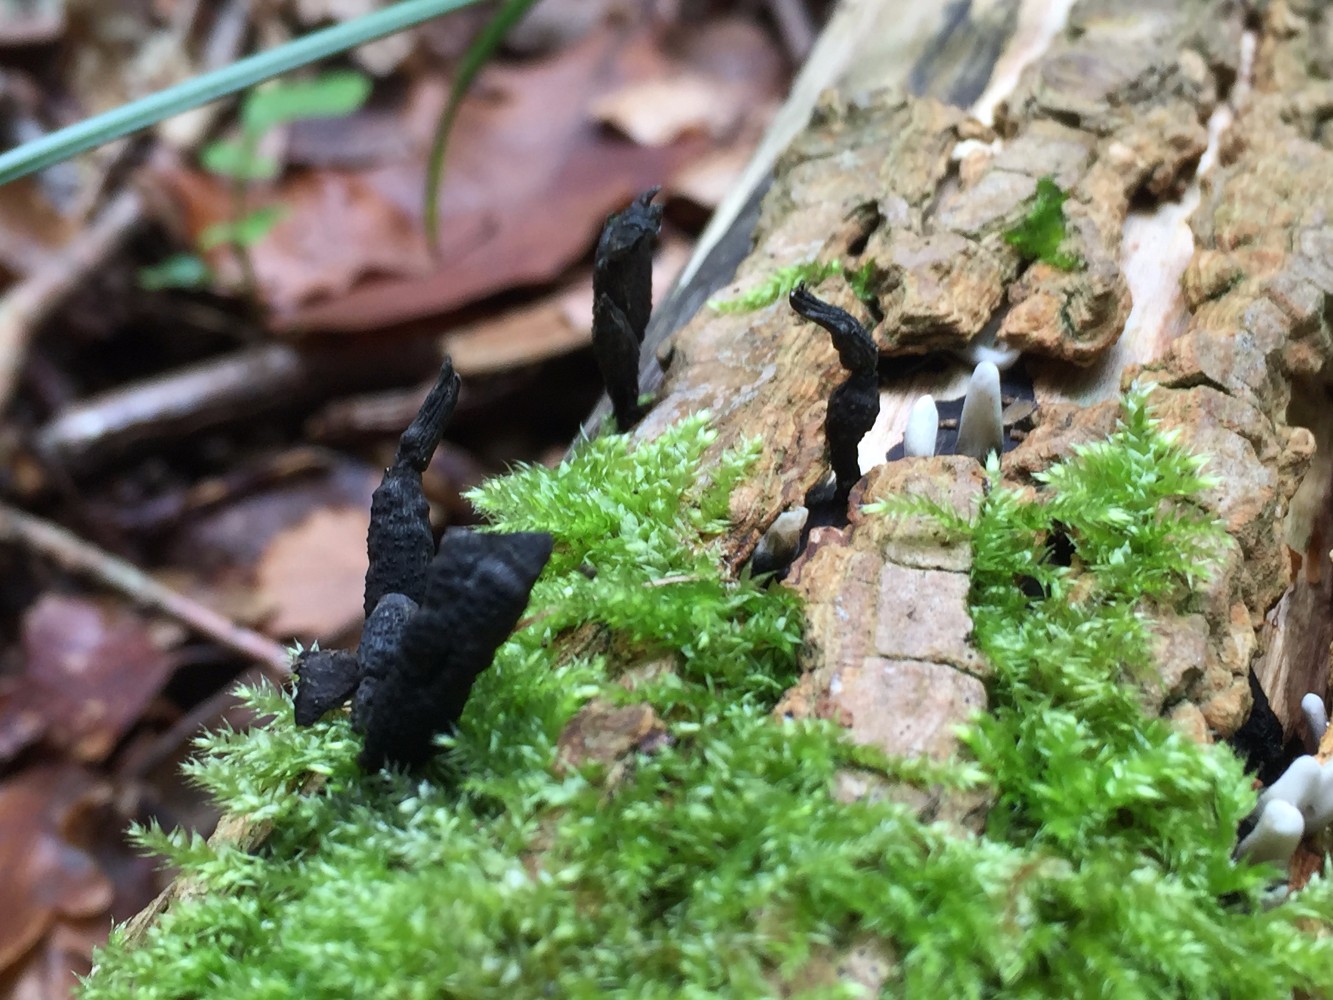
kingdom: Fungi
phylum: Ascomycota
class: Sordariomycetes
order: Xylariales
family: Xylariaceae
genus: Xylaria
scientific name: Xylaria hypoxylon
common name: grenet stødsvamp
